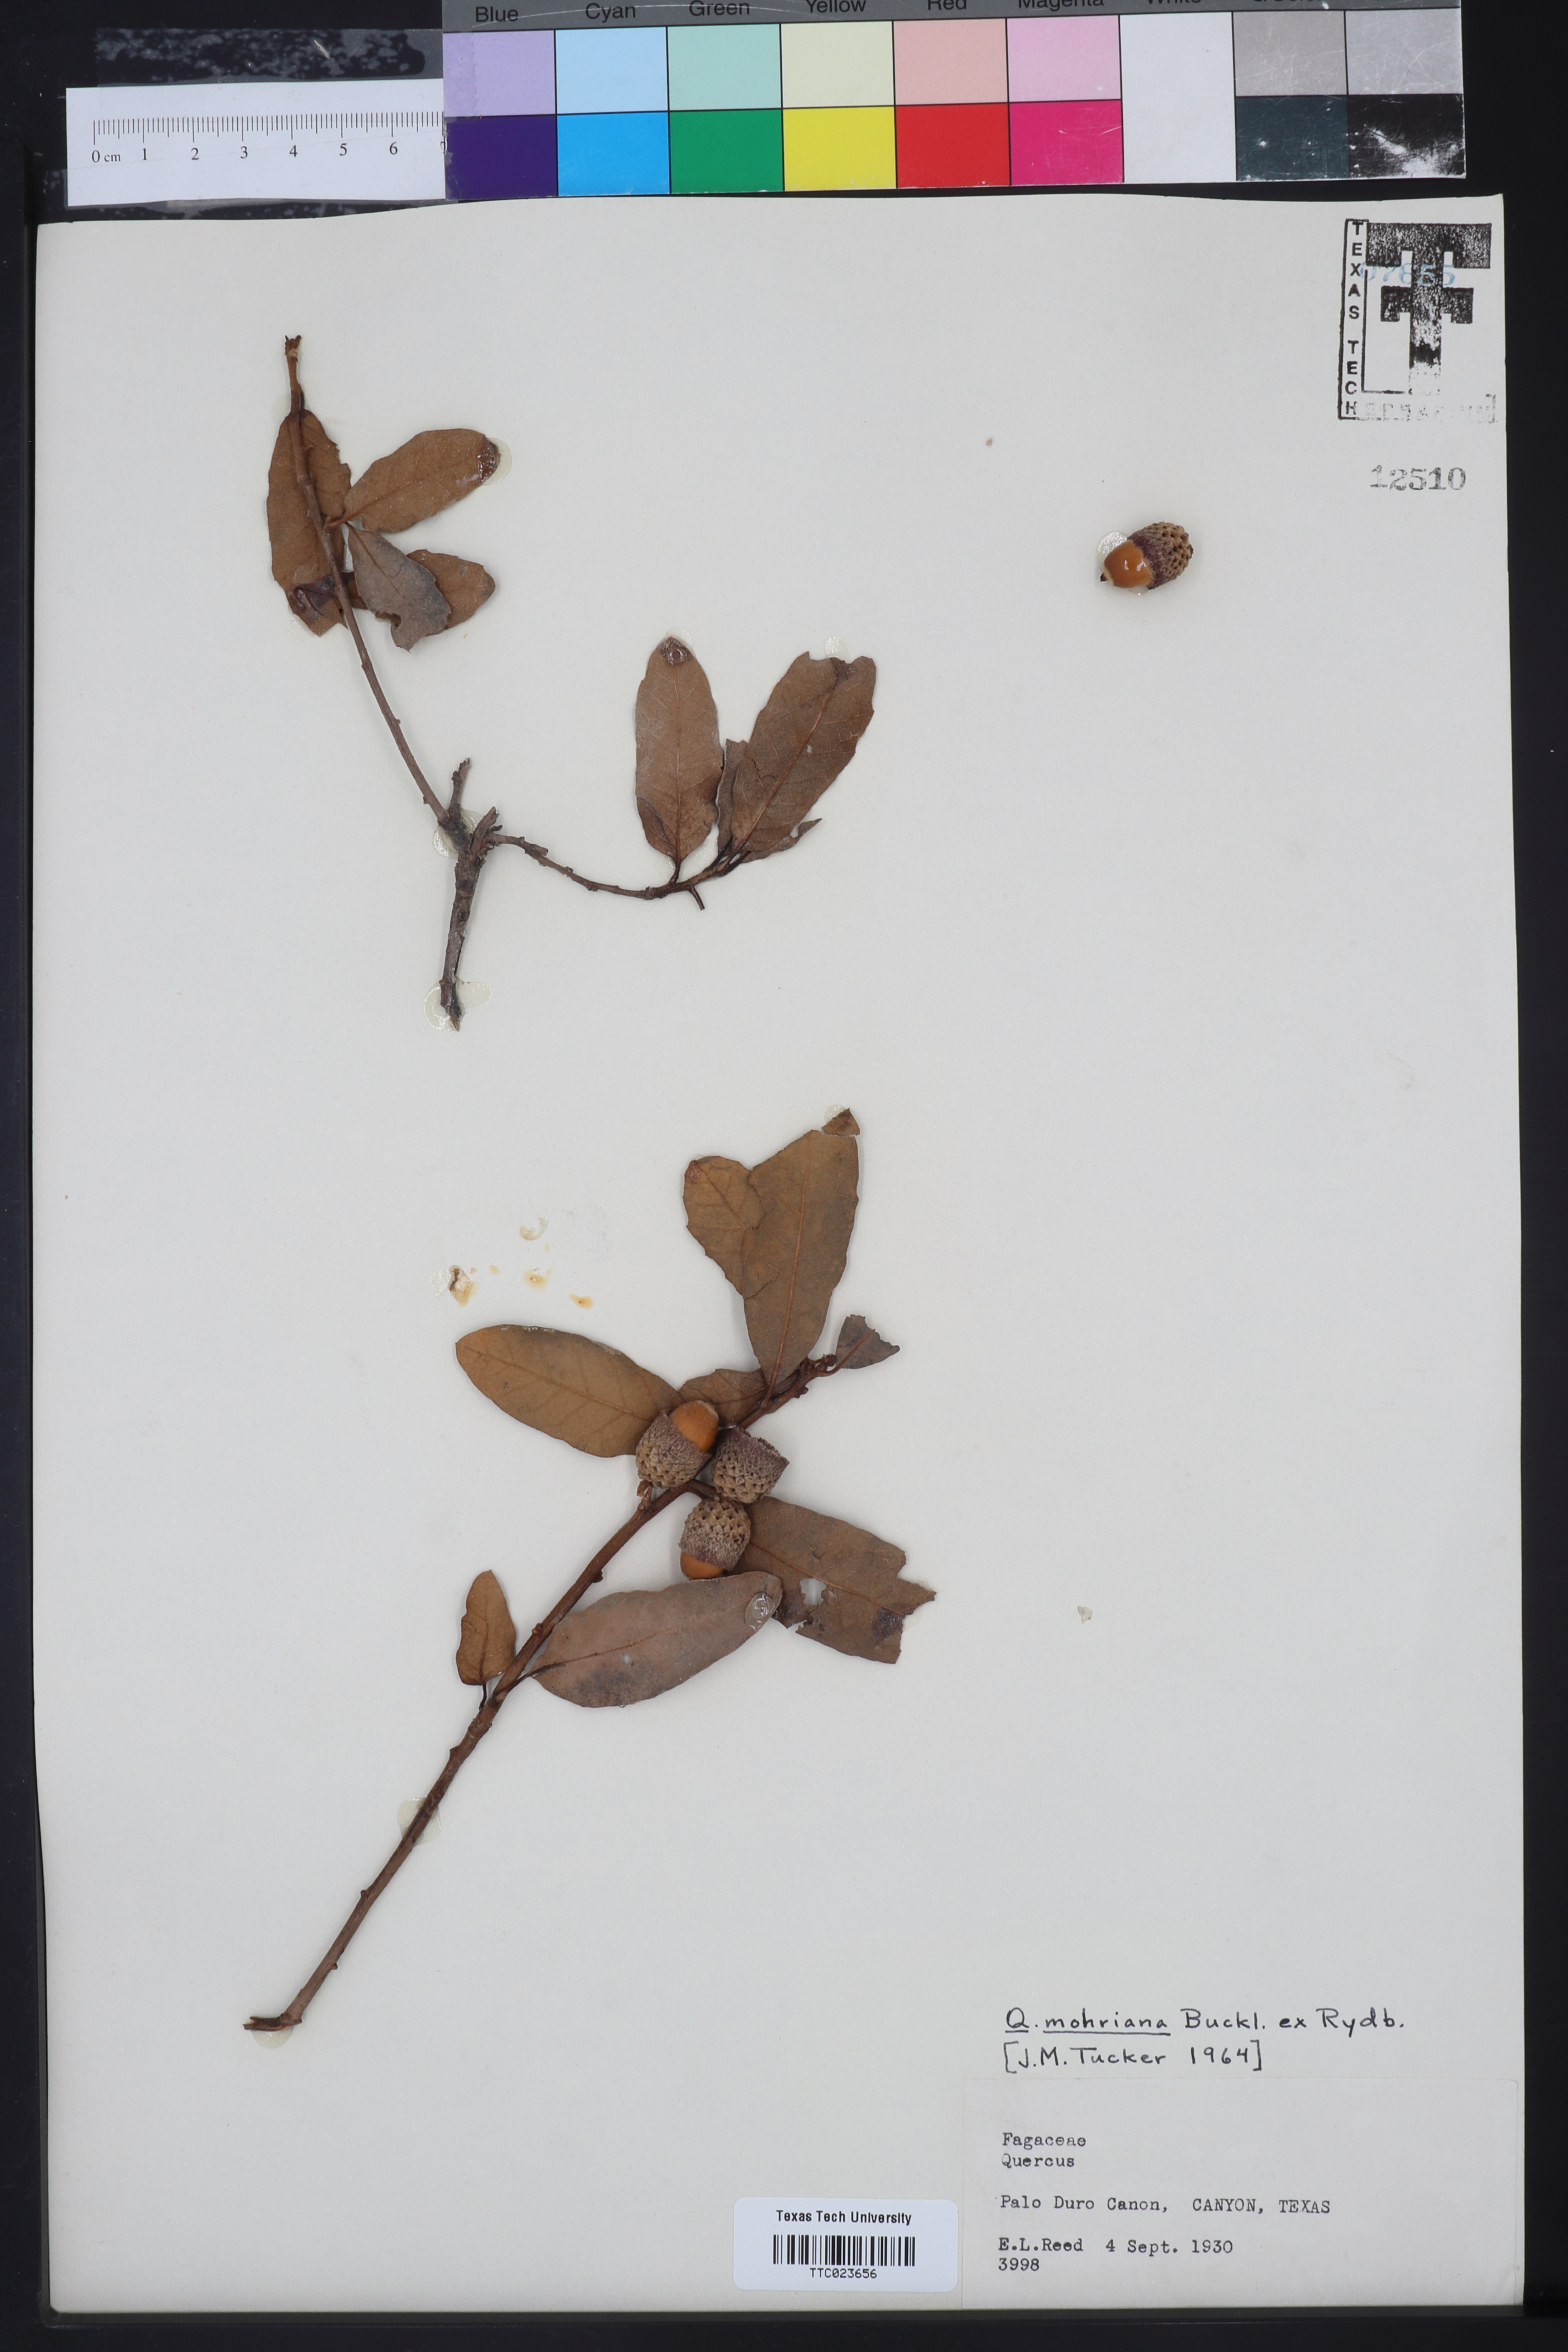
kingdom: Plantae
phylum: Tracheophyta
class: Magnoliopsida
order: Fagales
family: Fagaceae
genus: Quercus
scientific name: Quercus mohriana
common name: Mohr oak
